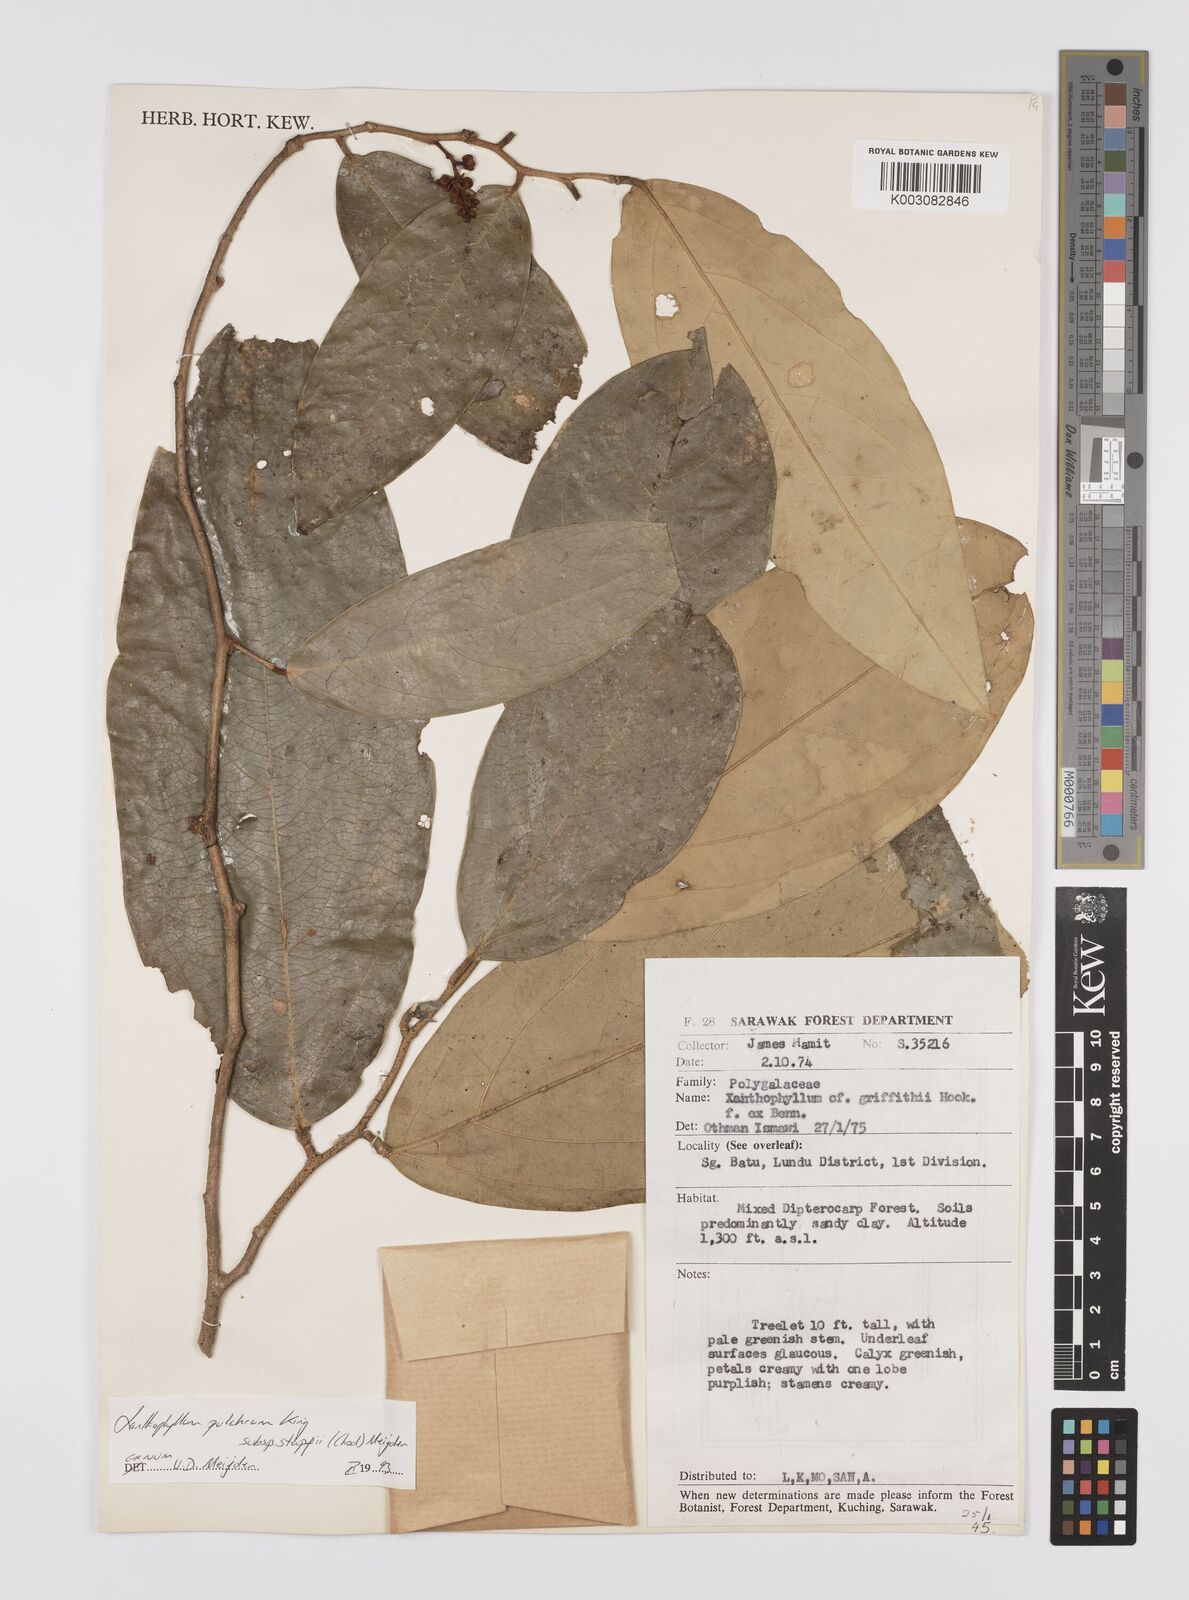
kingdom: Plantae
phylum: Tracheophyta
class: Magnoliopsida
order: Fabales
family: Polygalaceae
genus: Xanthophyllum
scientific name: Xanthophyllum pulchrum
